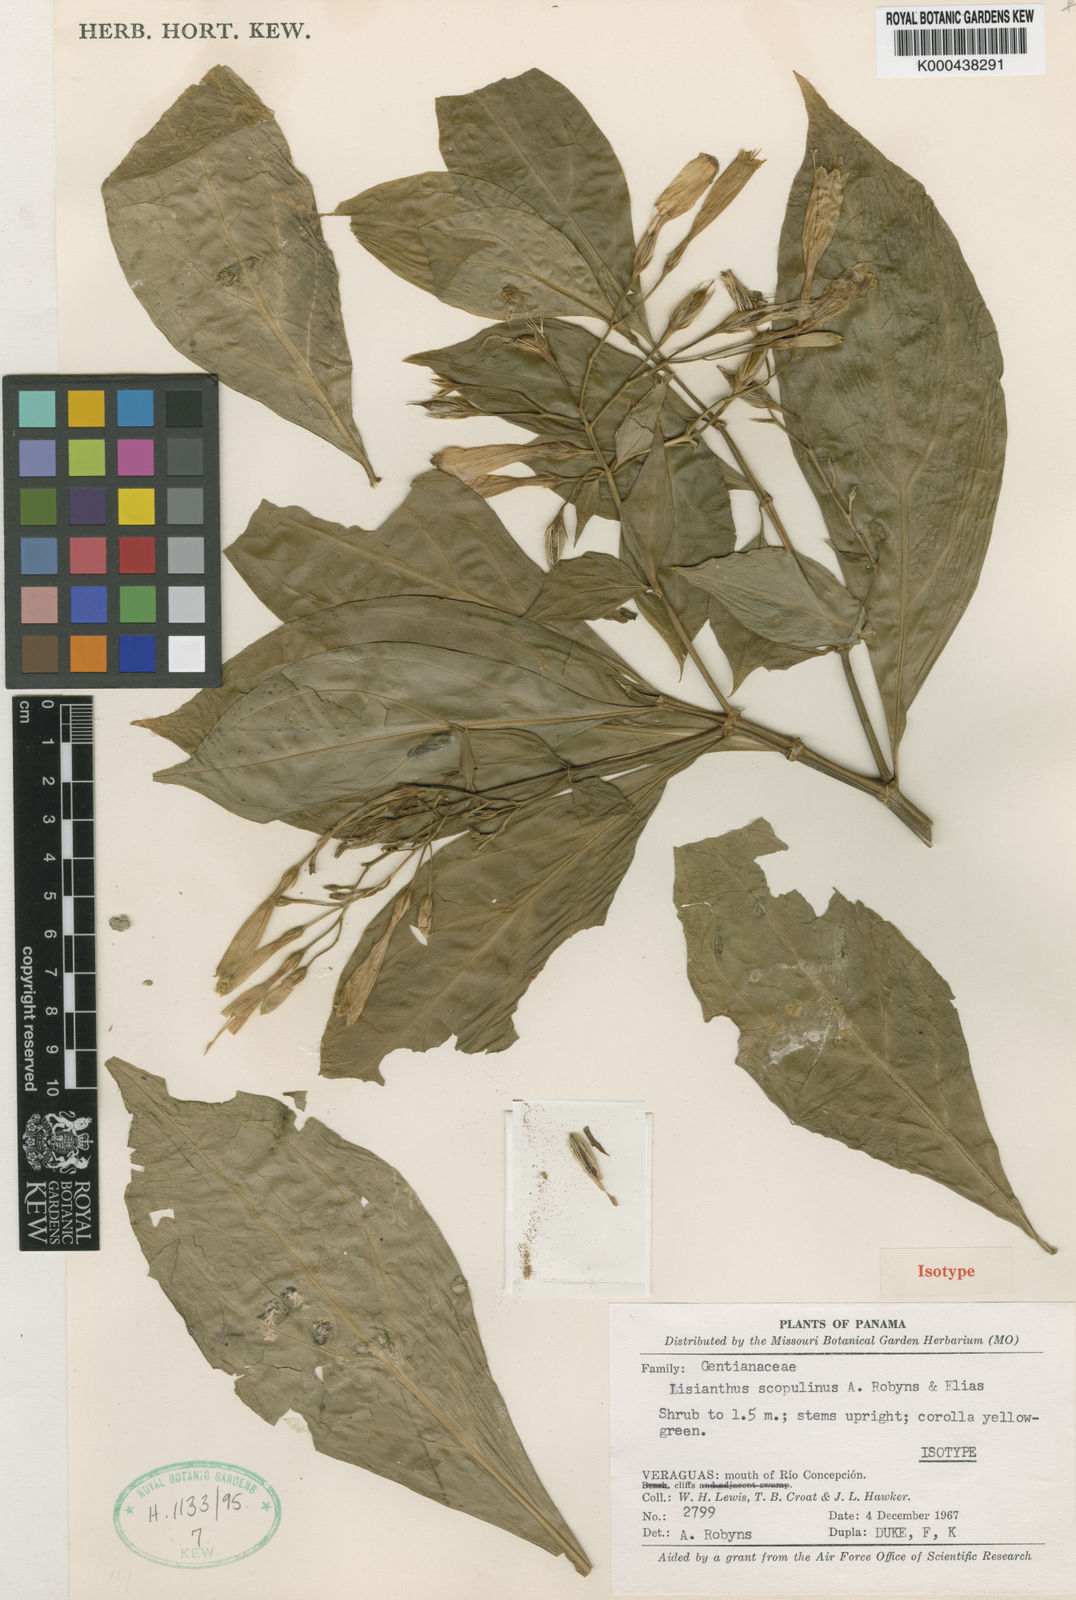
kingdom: Plantae
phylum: Tracheophyta
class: Magnoliopsida
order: Gentianales
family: Gentianaceae
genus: Lisianthus
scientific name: Lisianthus skinneri
